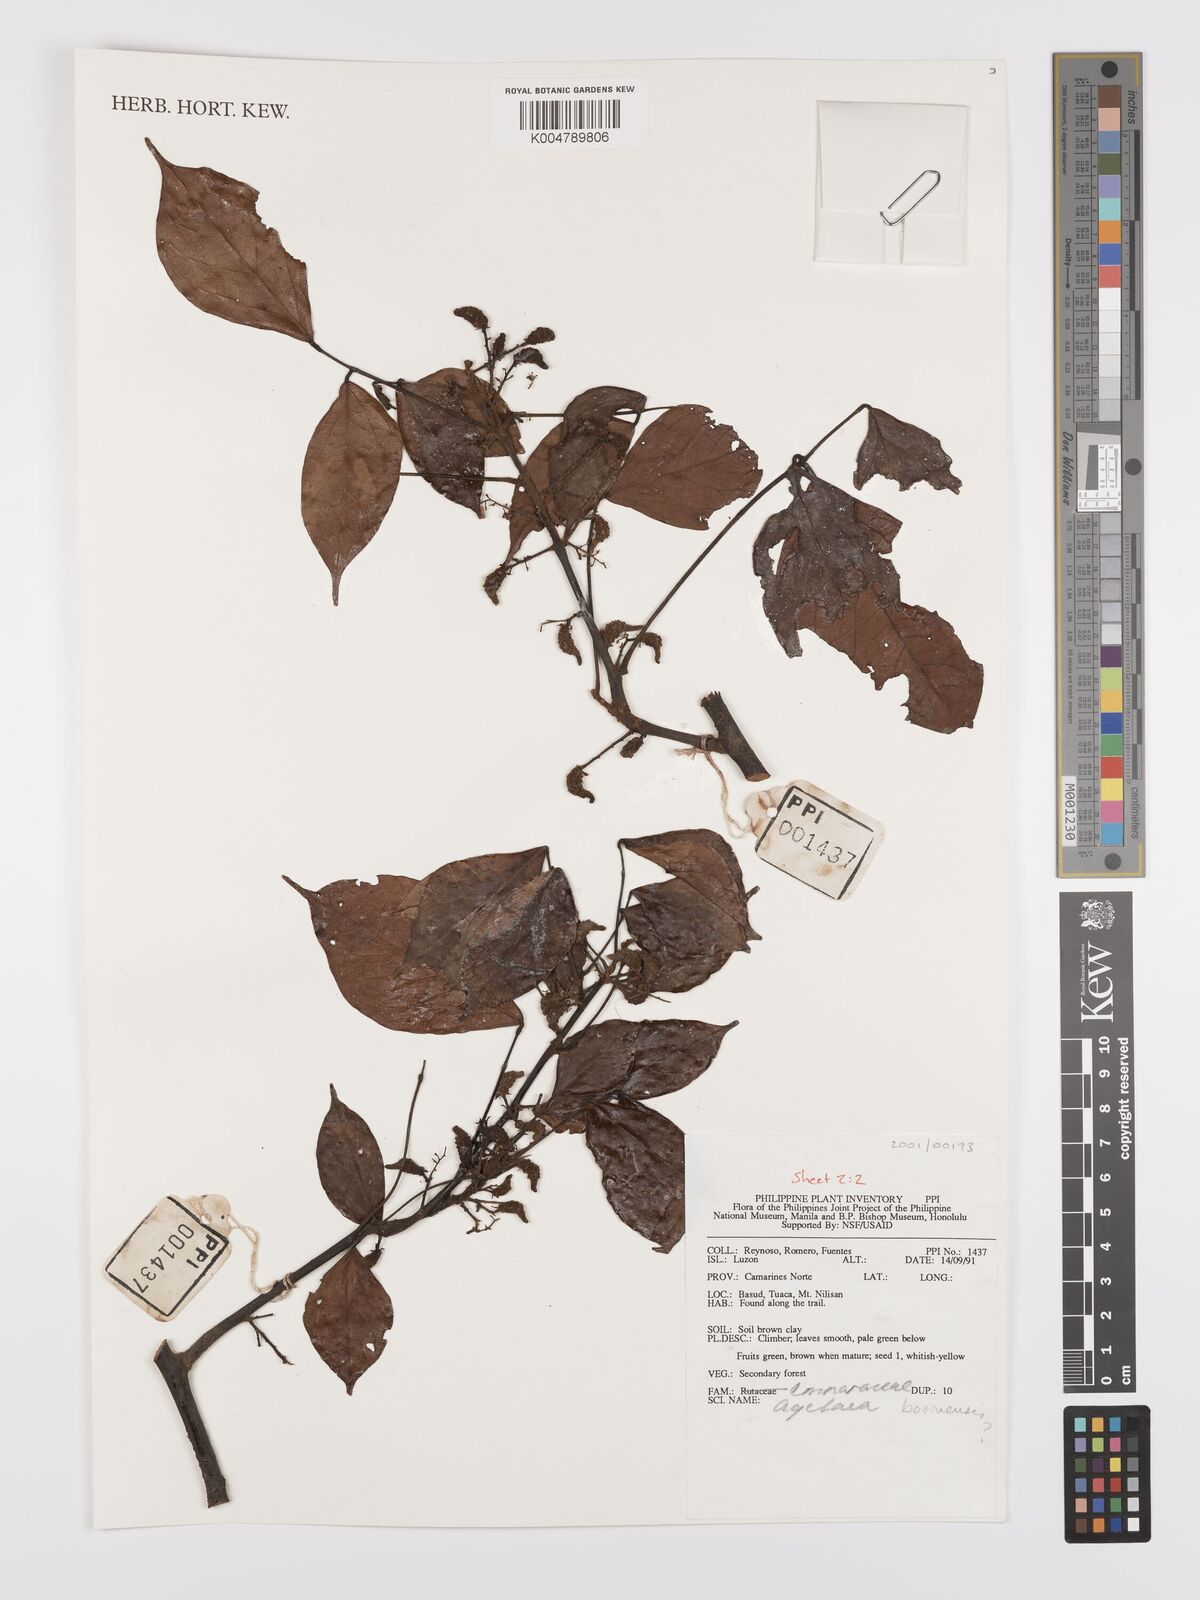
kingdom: Plantae
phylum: Tracheophyta
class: Magnoliopsida
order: Oxalidales
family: Connaraceae
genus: Agelaea
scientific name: Agelaea borneensis
